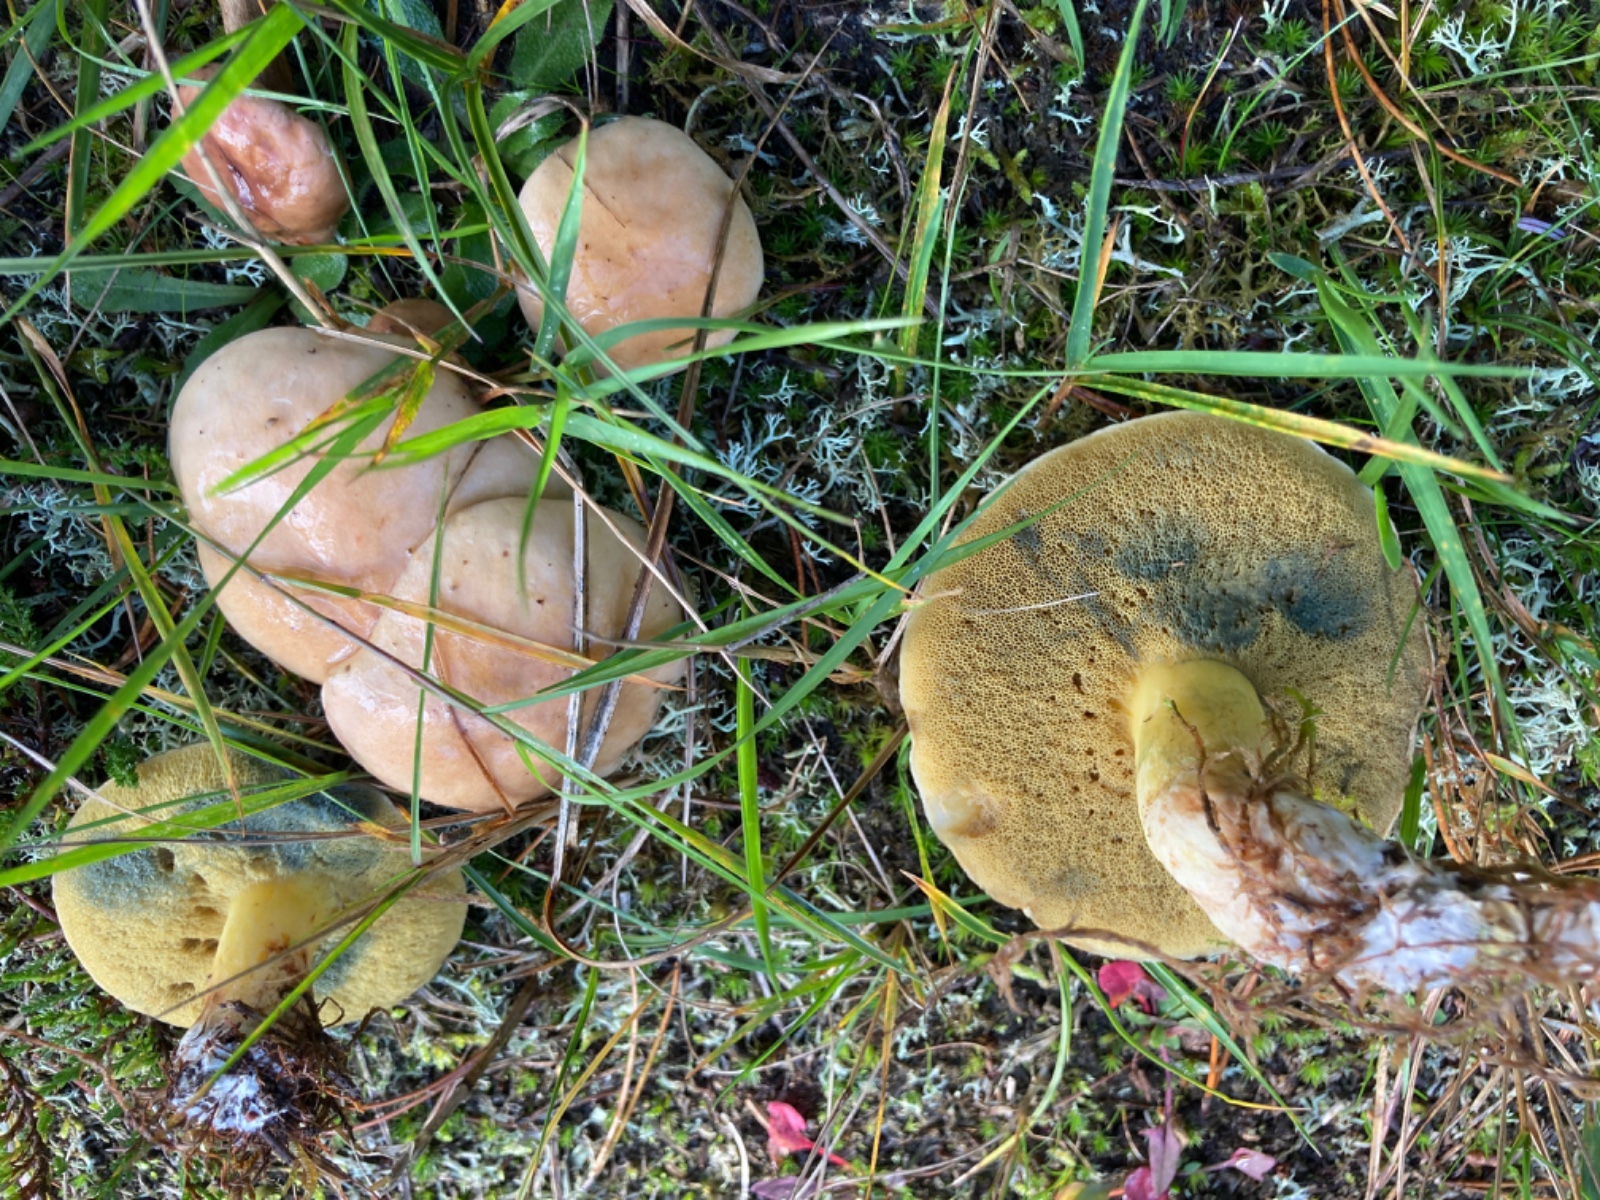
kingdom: Fungi
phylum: Basidiomycota
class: Agaricomycetes
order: Boletales
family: Suillaceae
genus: Suillus
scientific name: Suillus
